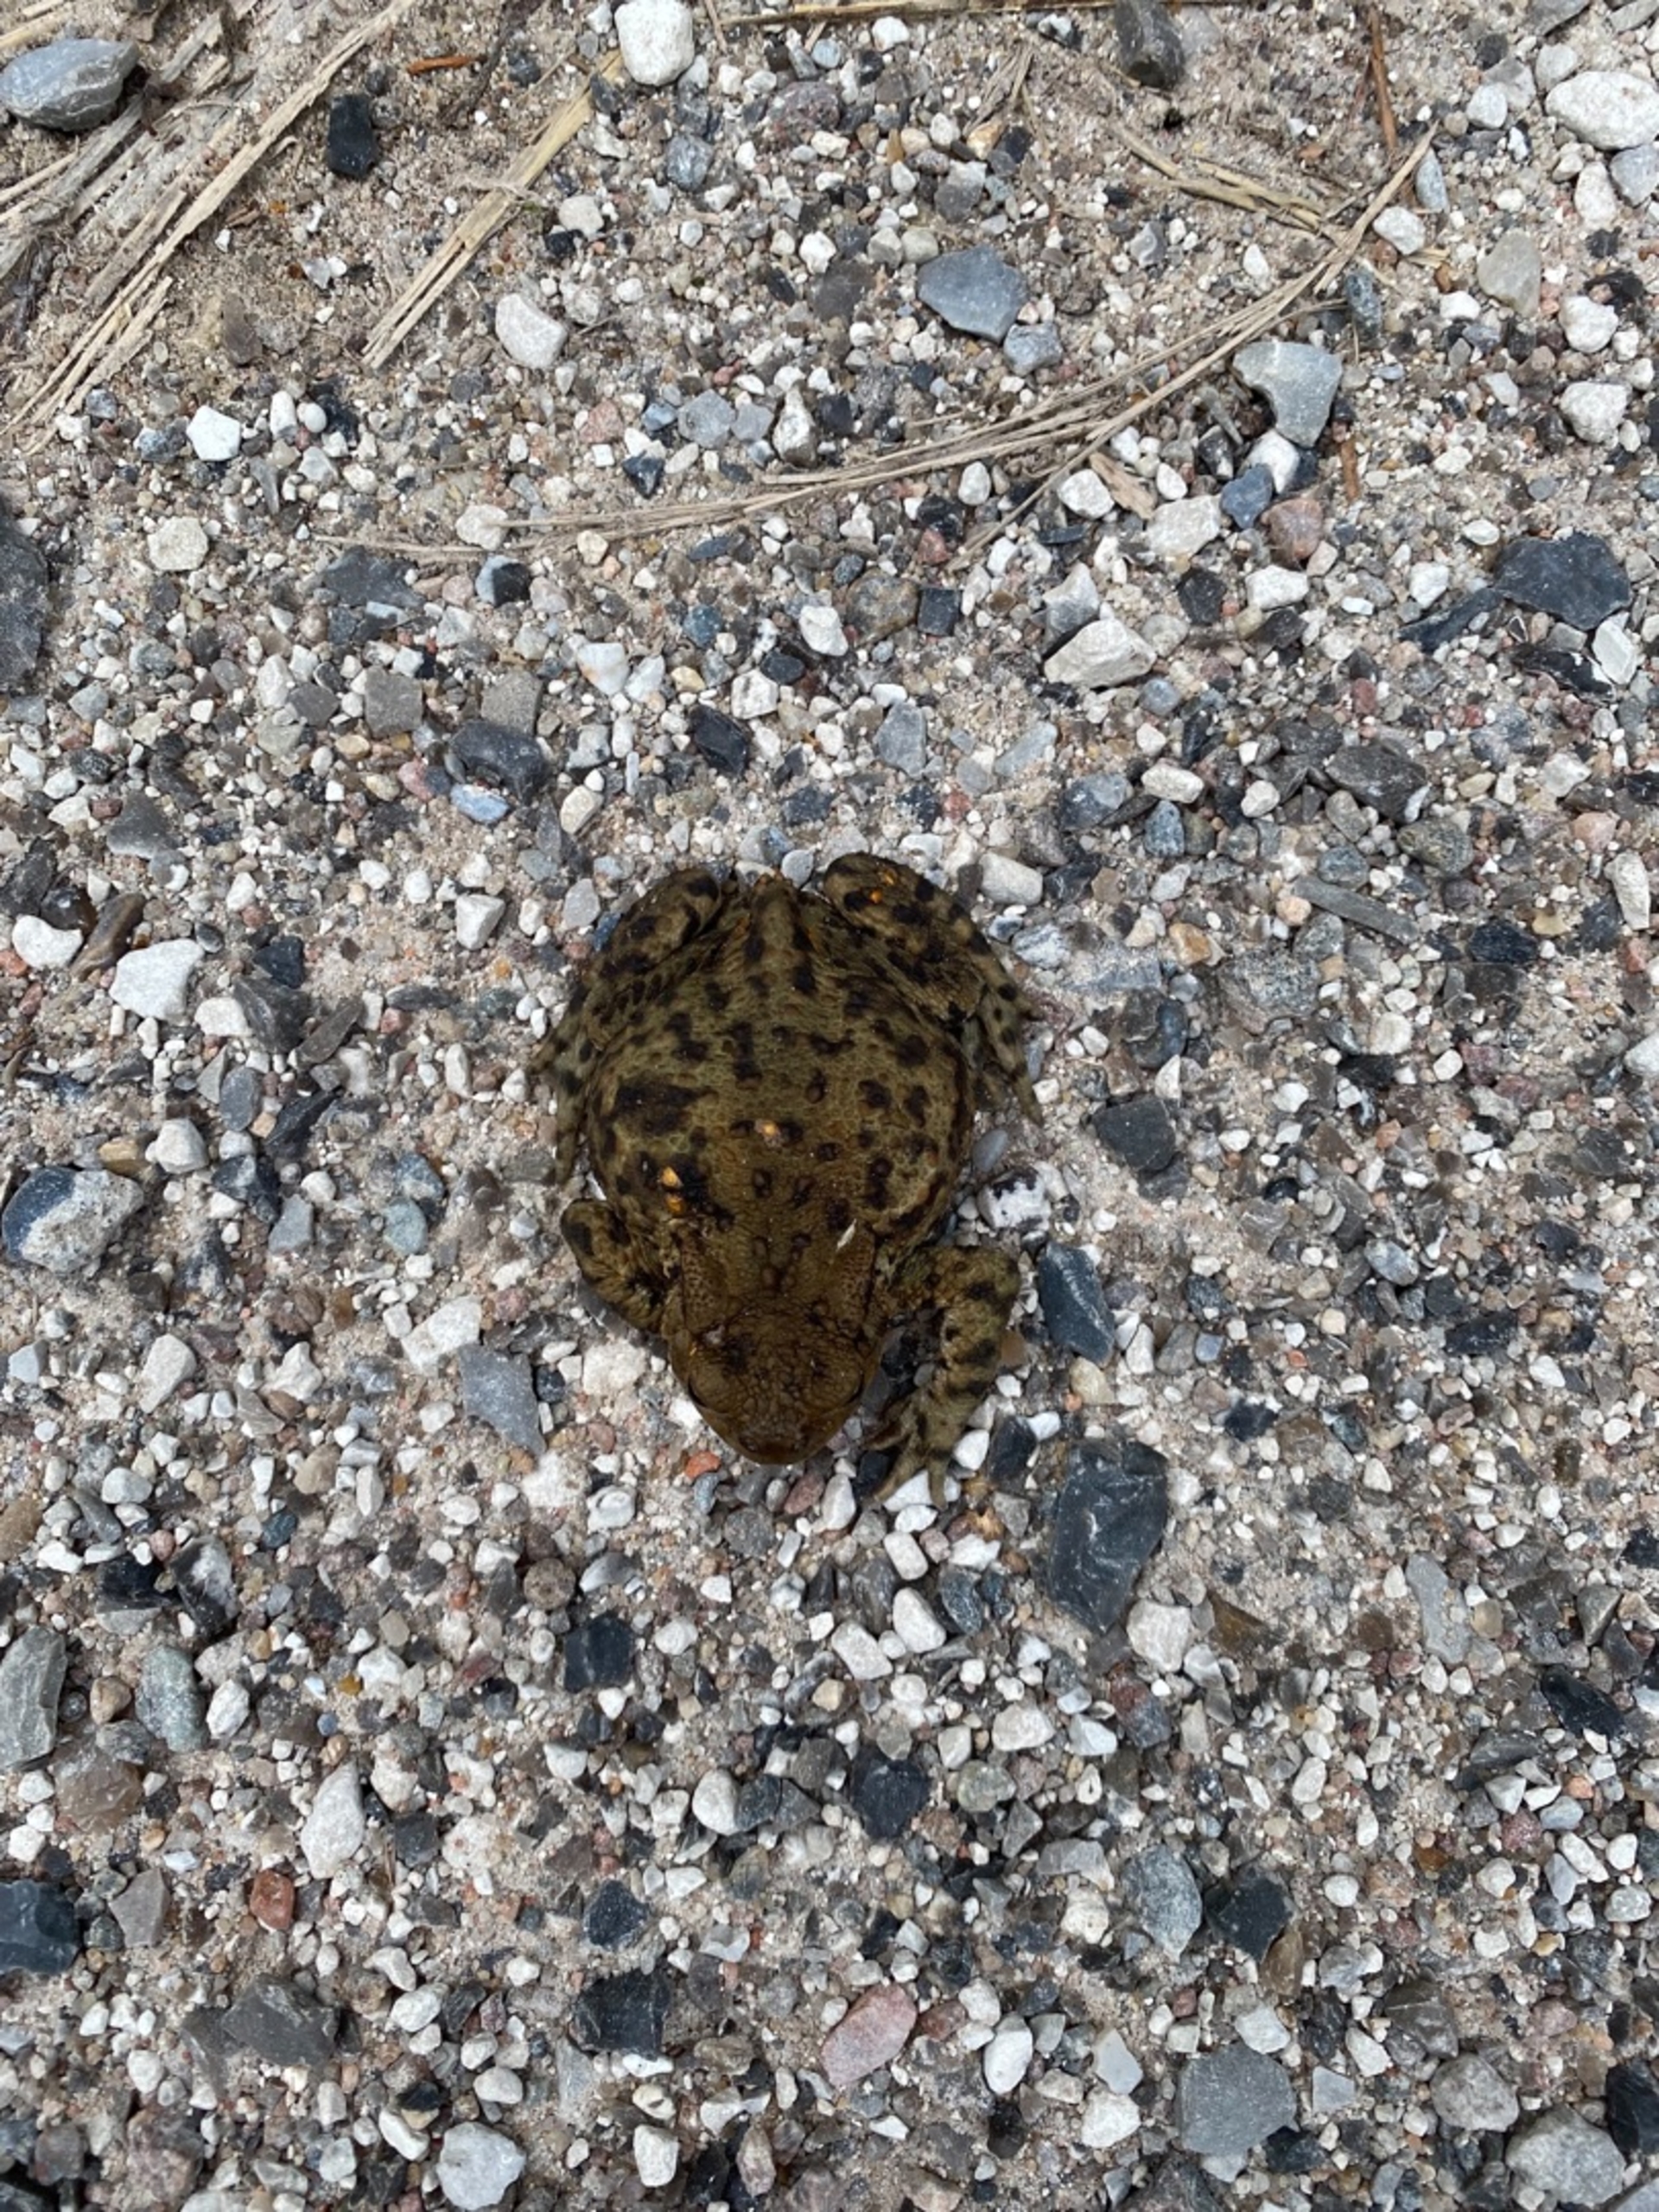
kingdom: Animalia
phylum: Chordata
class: Amphibia
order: Anura
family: Bufonidae
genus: Bufo
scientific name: Bufo bufo
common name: Skrubtudse
